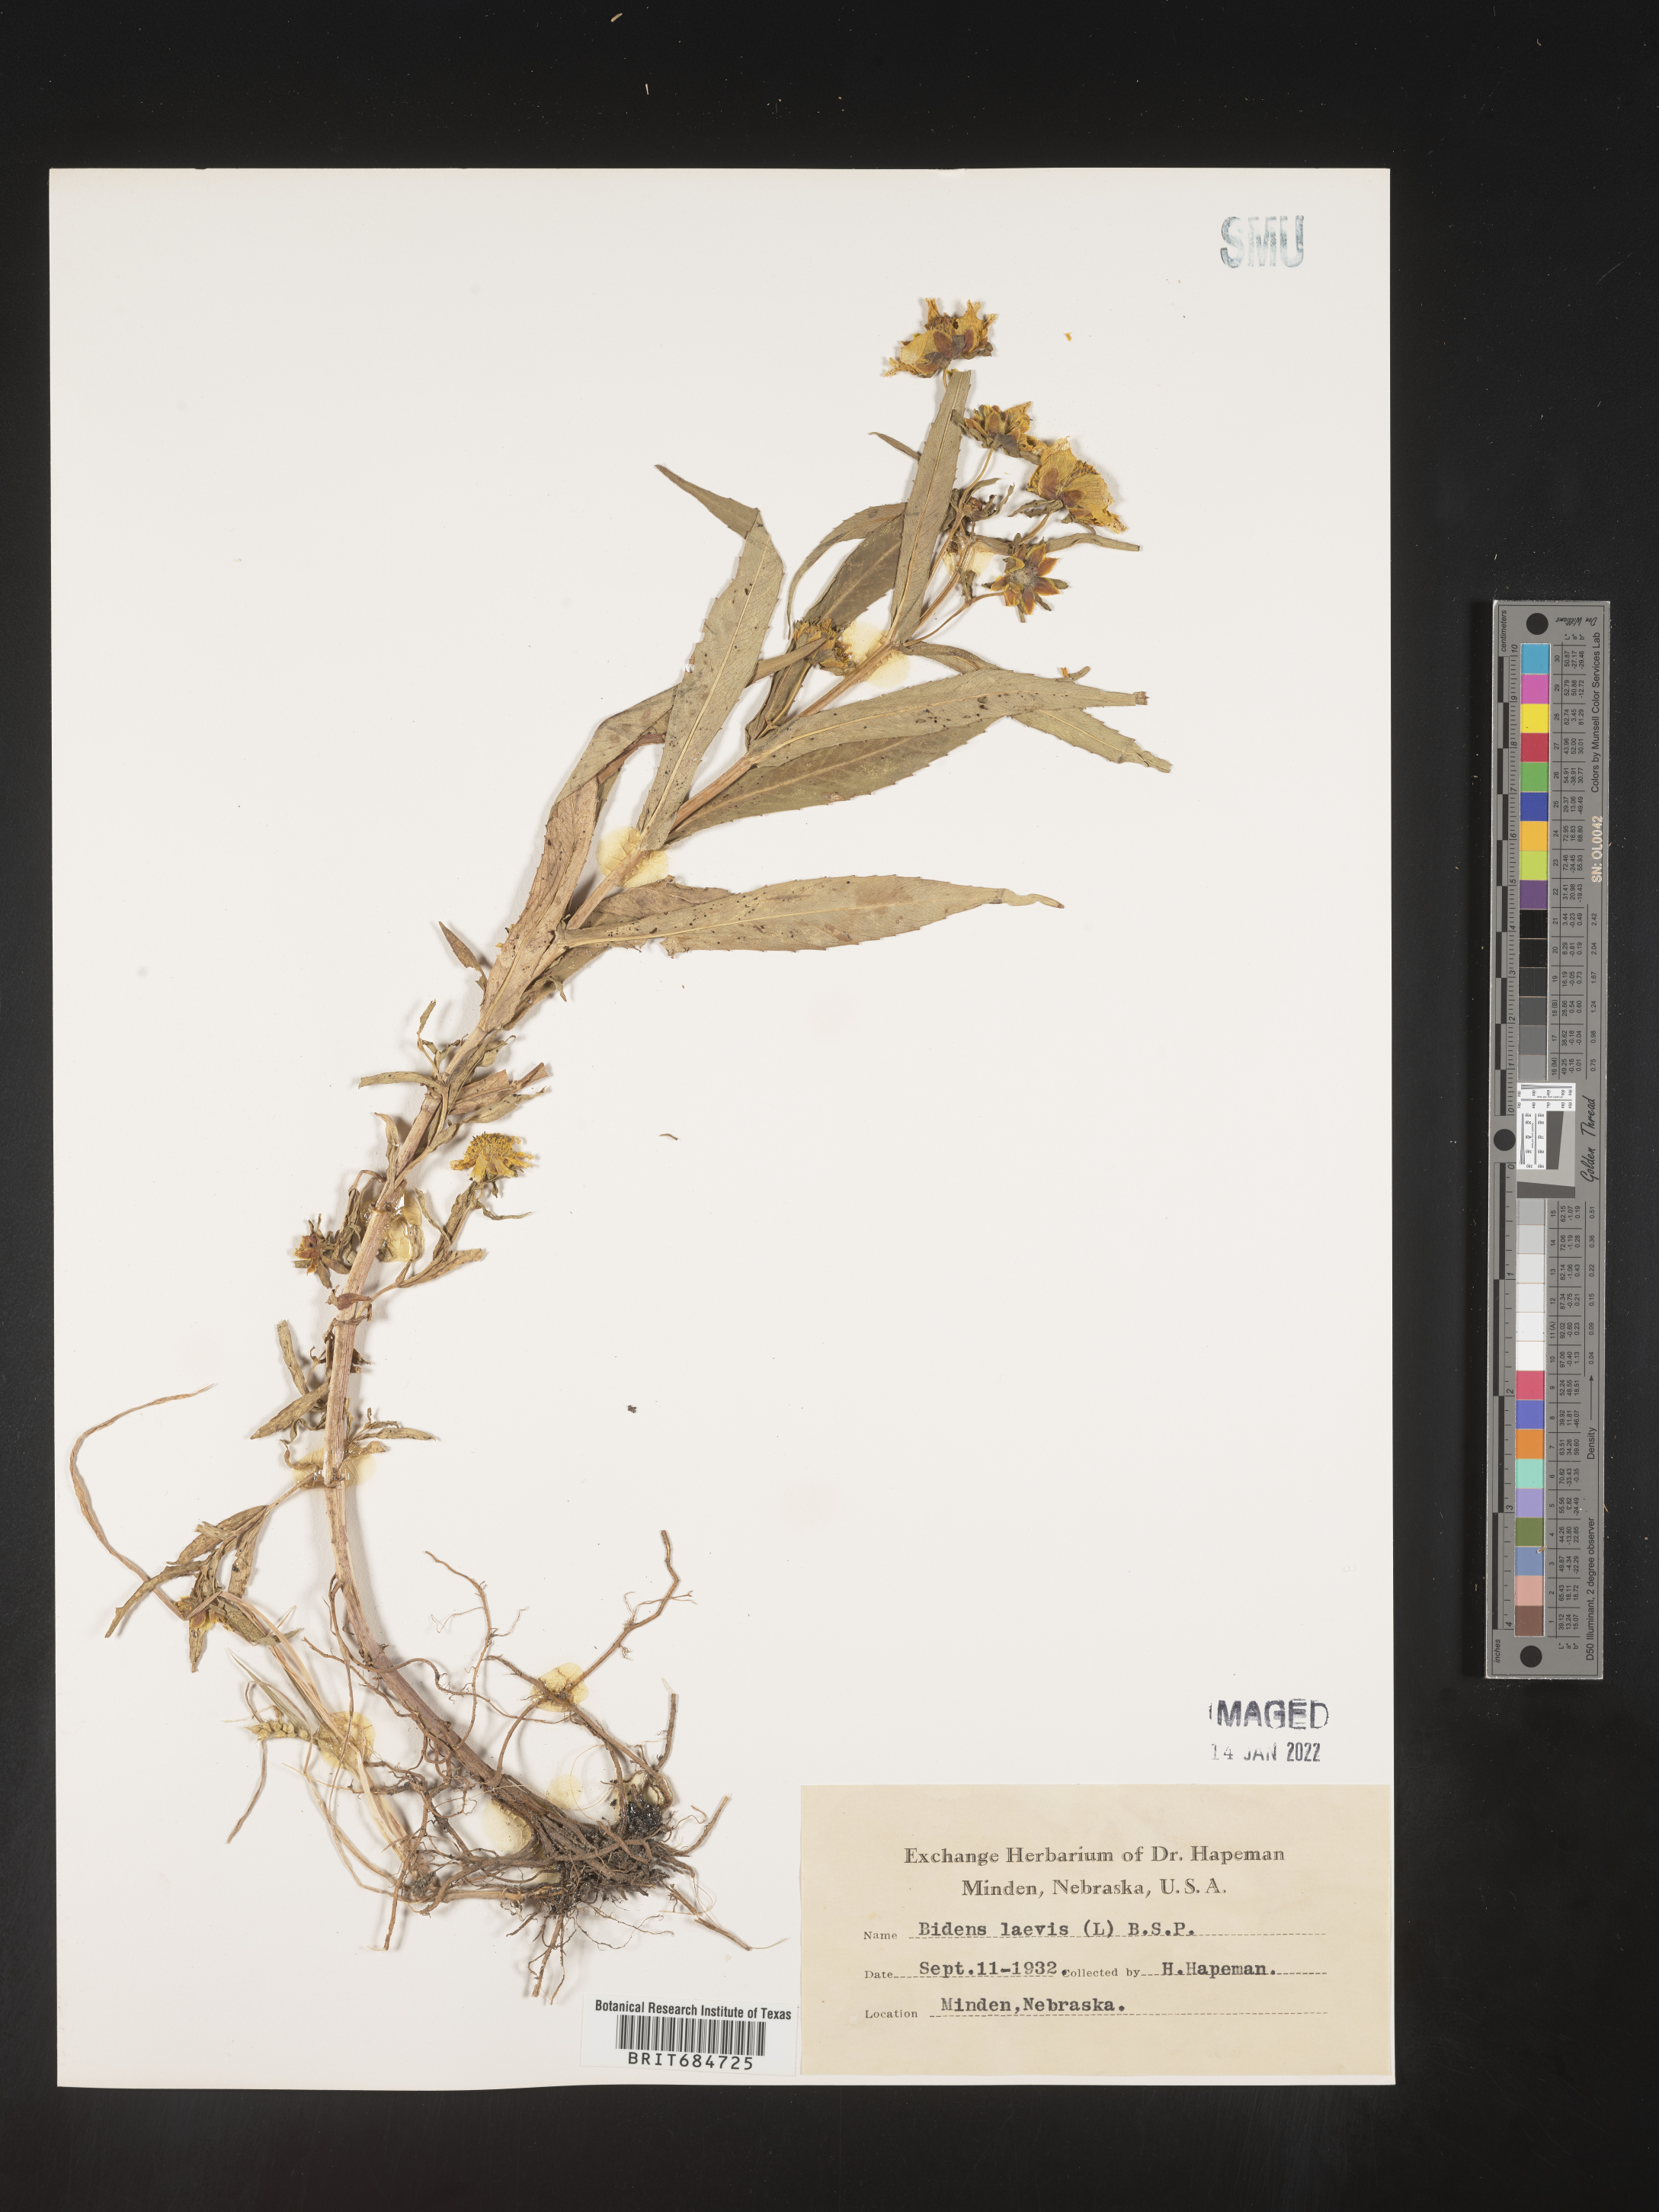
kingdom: Plantae
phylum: Tracheophyta
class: Magnoliopsida
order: Asterales
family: Asteraceae
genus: Bidens
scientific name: Bidens laevis
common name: Larger bur-marigold
